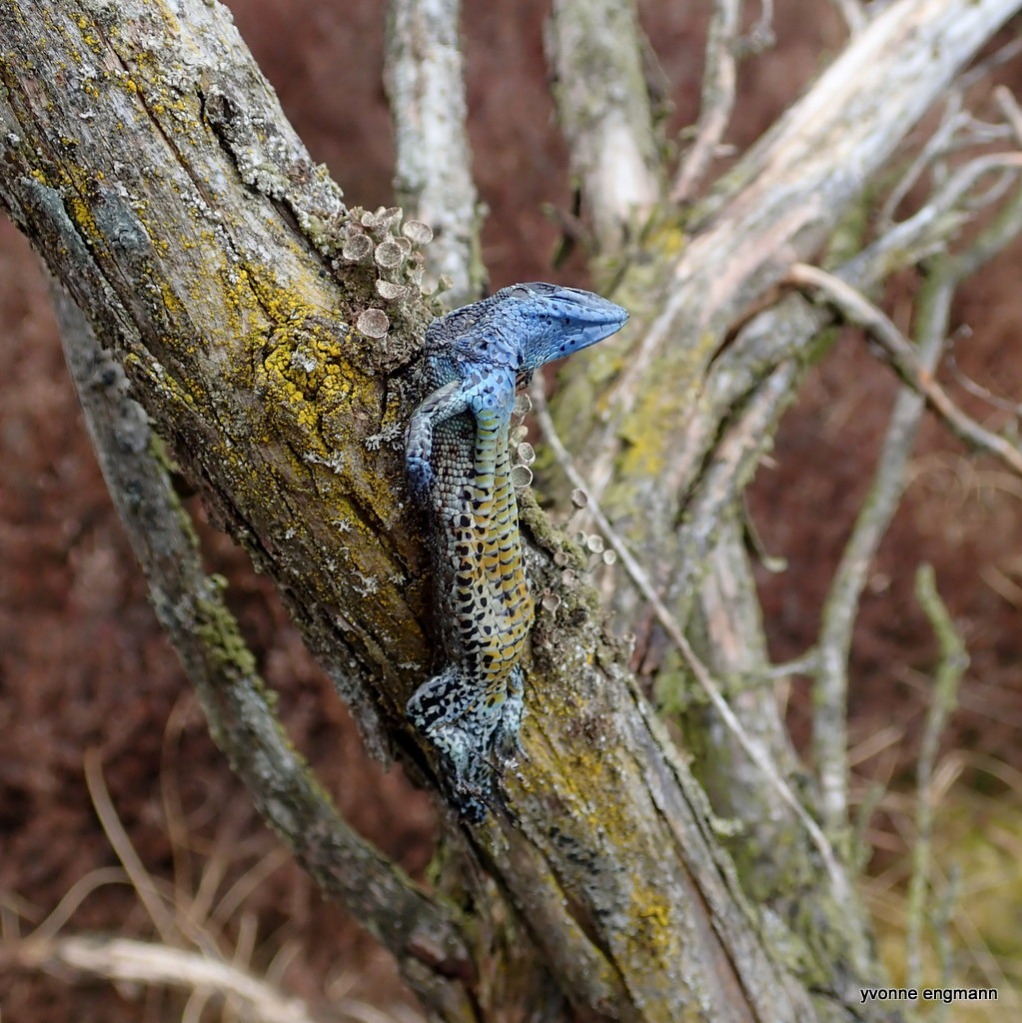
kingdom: Animalia
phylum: Chordata
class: Squamata
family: Lacertidae
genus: Zootoca
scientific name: Zootoca vivipara
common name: Skovfirben
